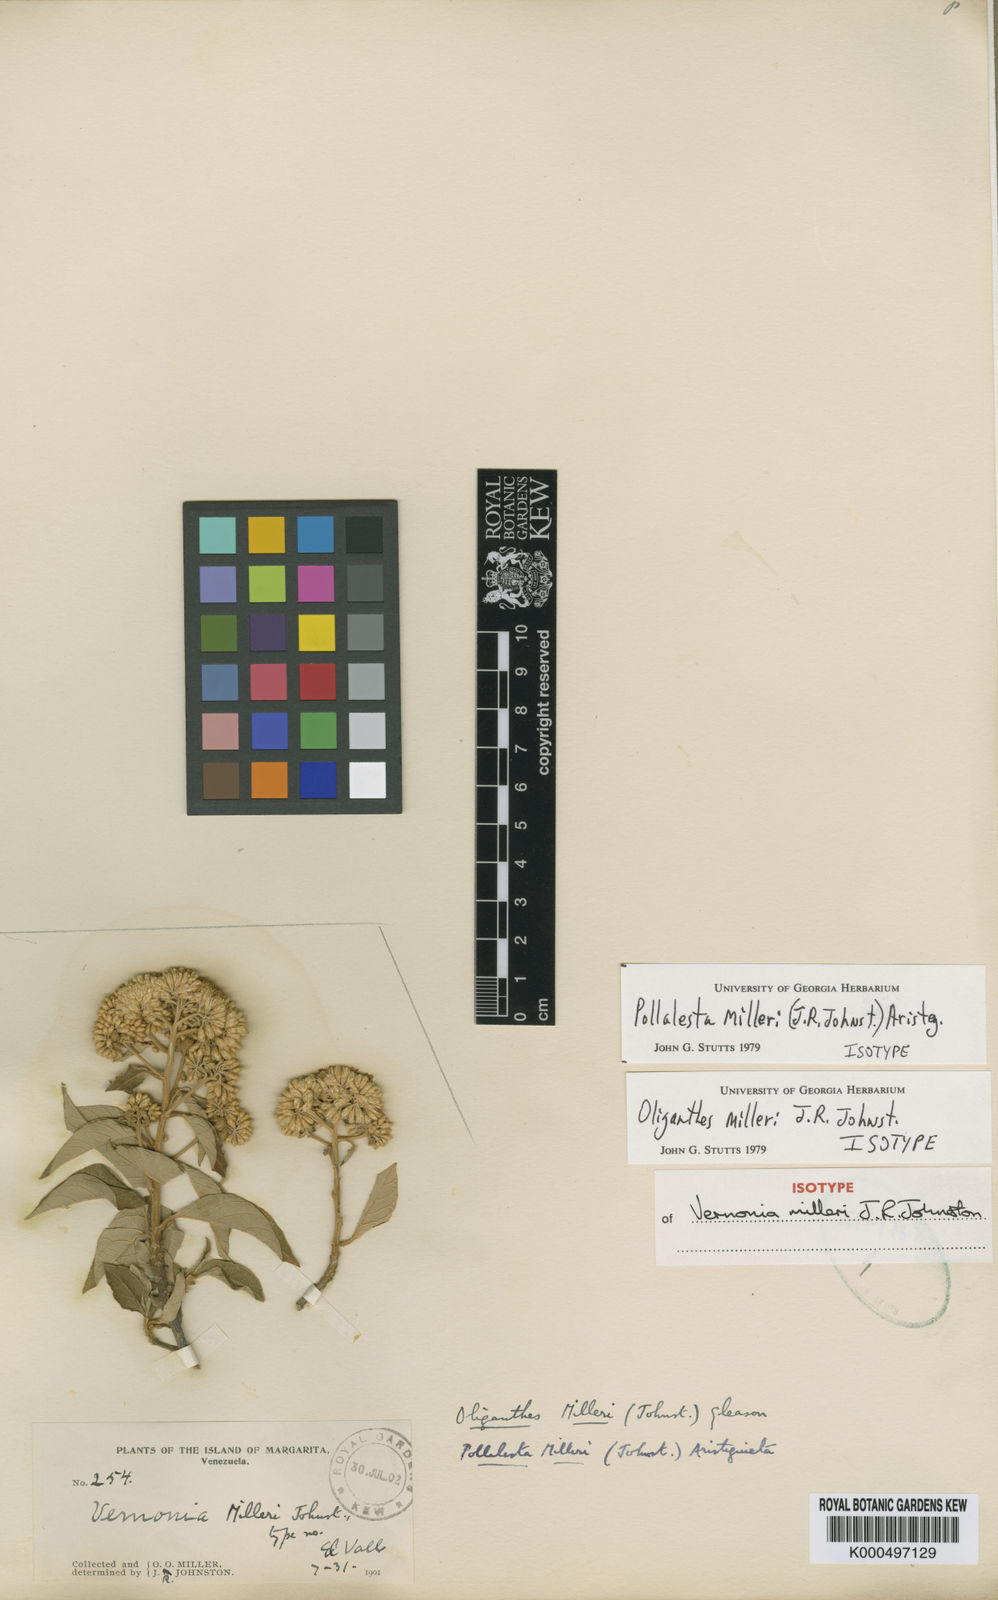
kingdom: Plantae
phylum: Tracheophyta
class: Magnoliopsida
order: Asterales
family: Asteraceae
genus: Piptocoma
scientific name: Piptocoma milleri
